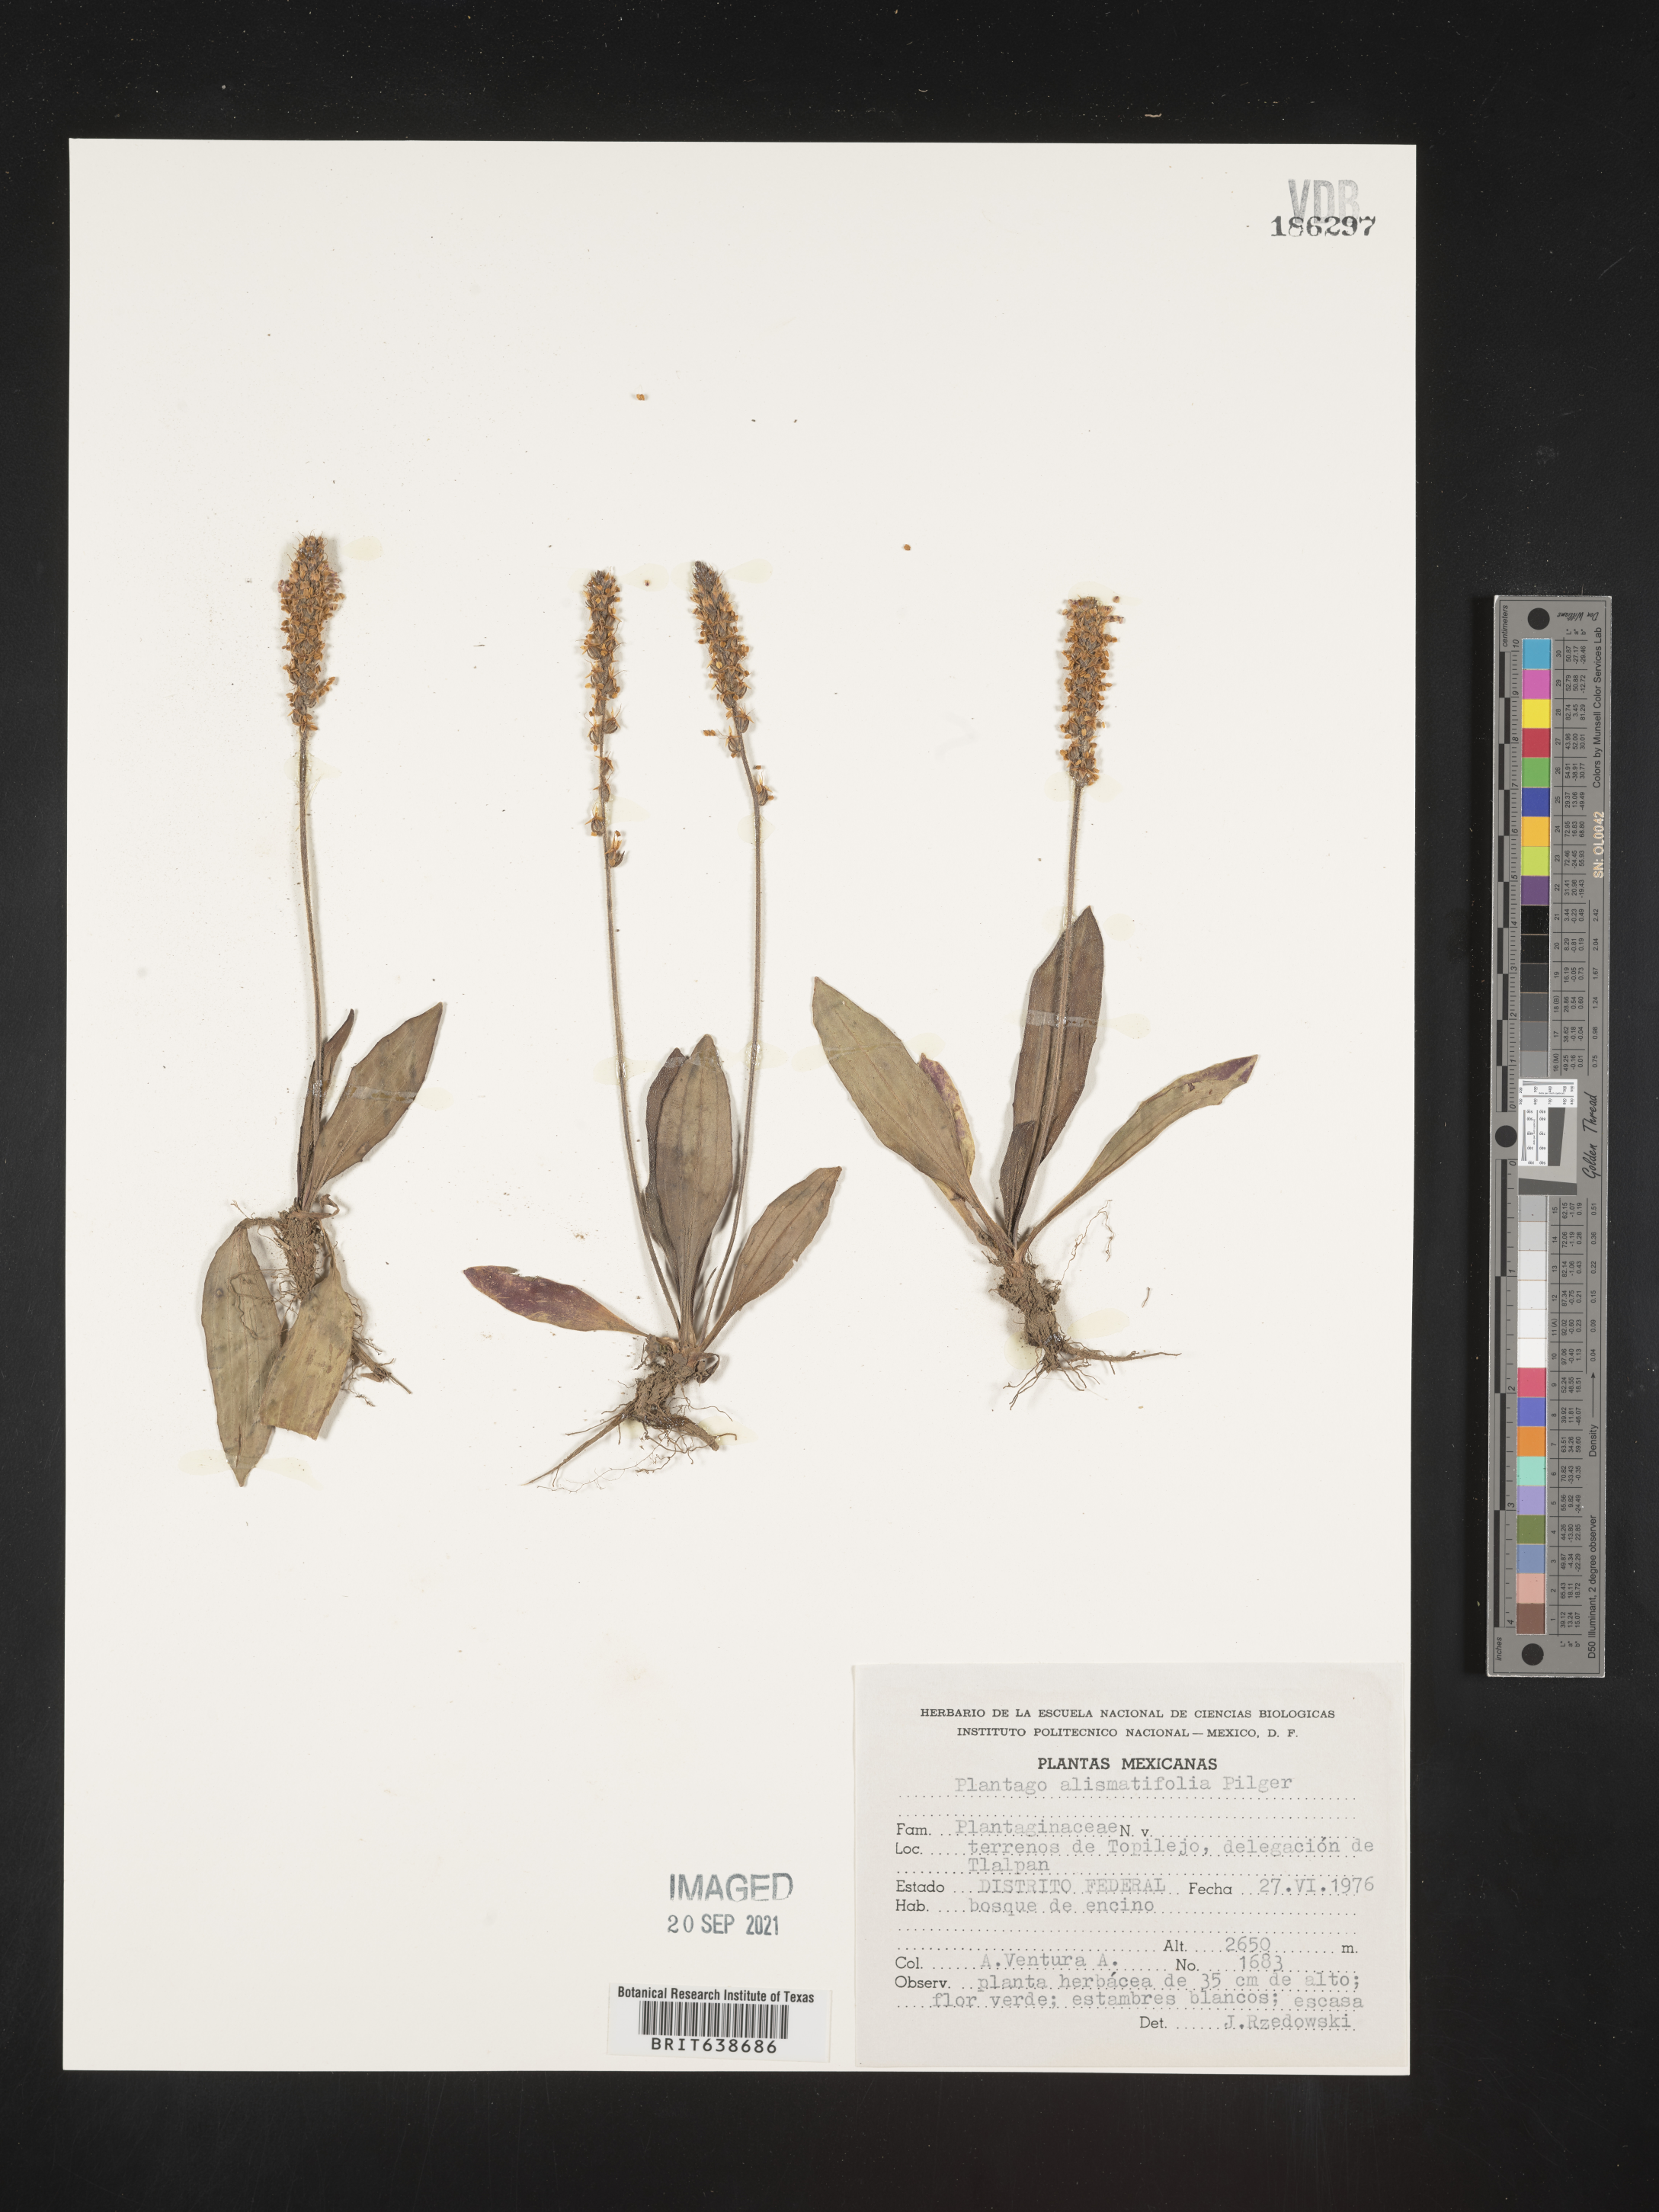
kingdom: Plantae
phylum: Tracheophyta
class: Magnoliopsida
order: Lamiales
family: Plantaginaceae
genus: Plantago
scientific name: Plantago
